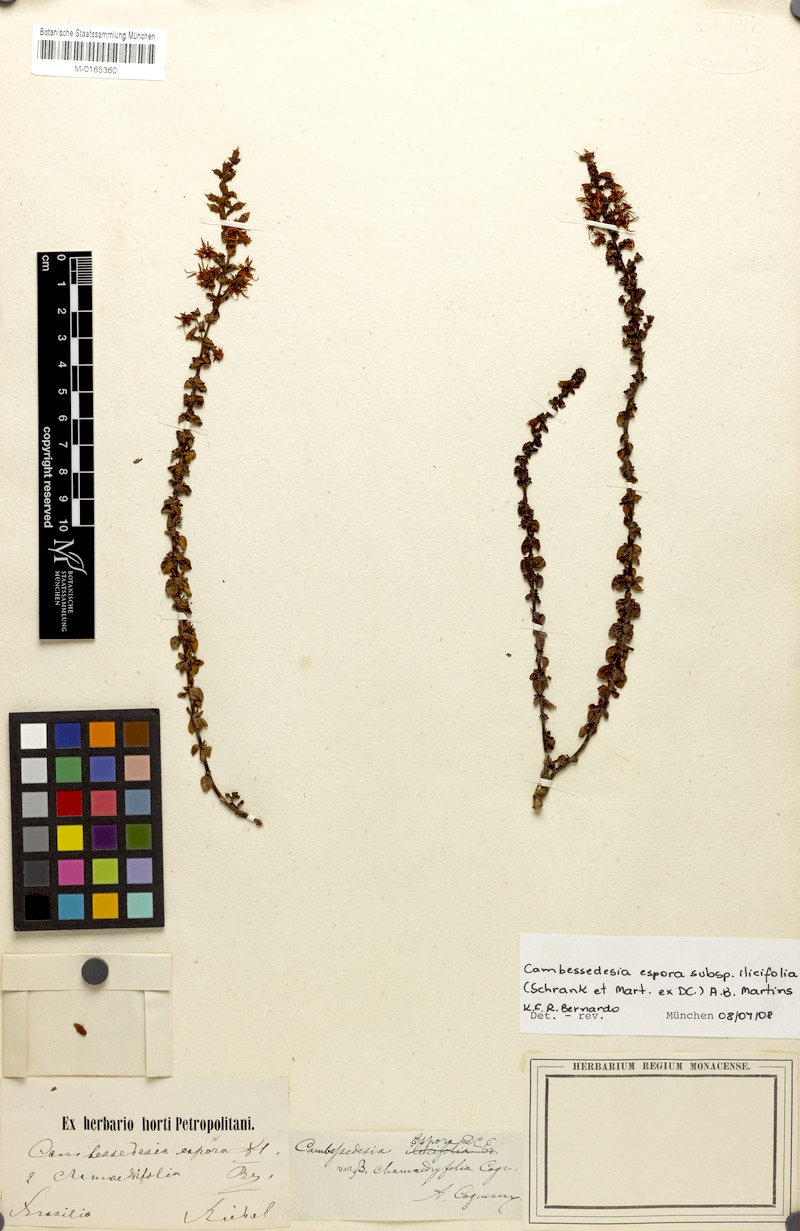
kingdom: Plantae
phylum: Tracheophyta
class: Magnoliopsida
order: Myrtales
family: Melastomataceae
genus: Cambessedesia
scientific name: Cambessedesia espora
